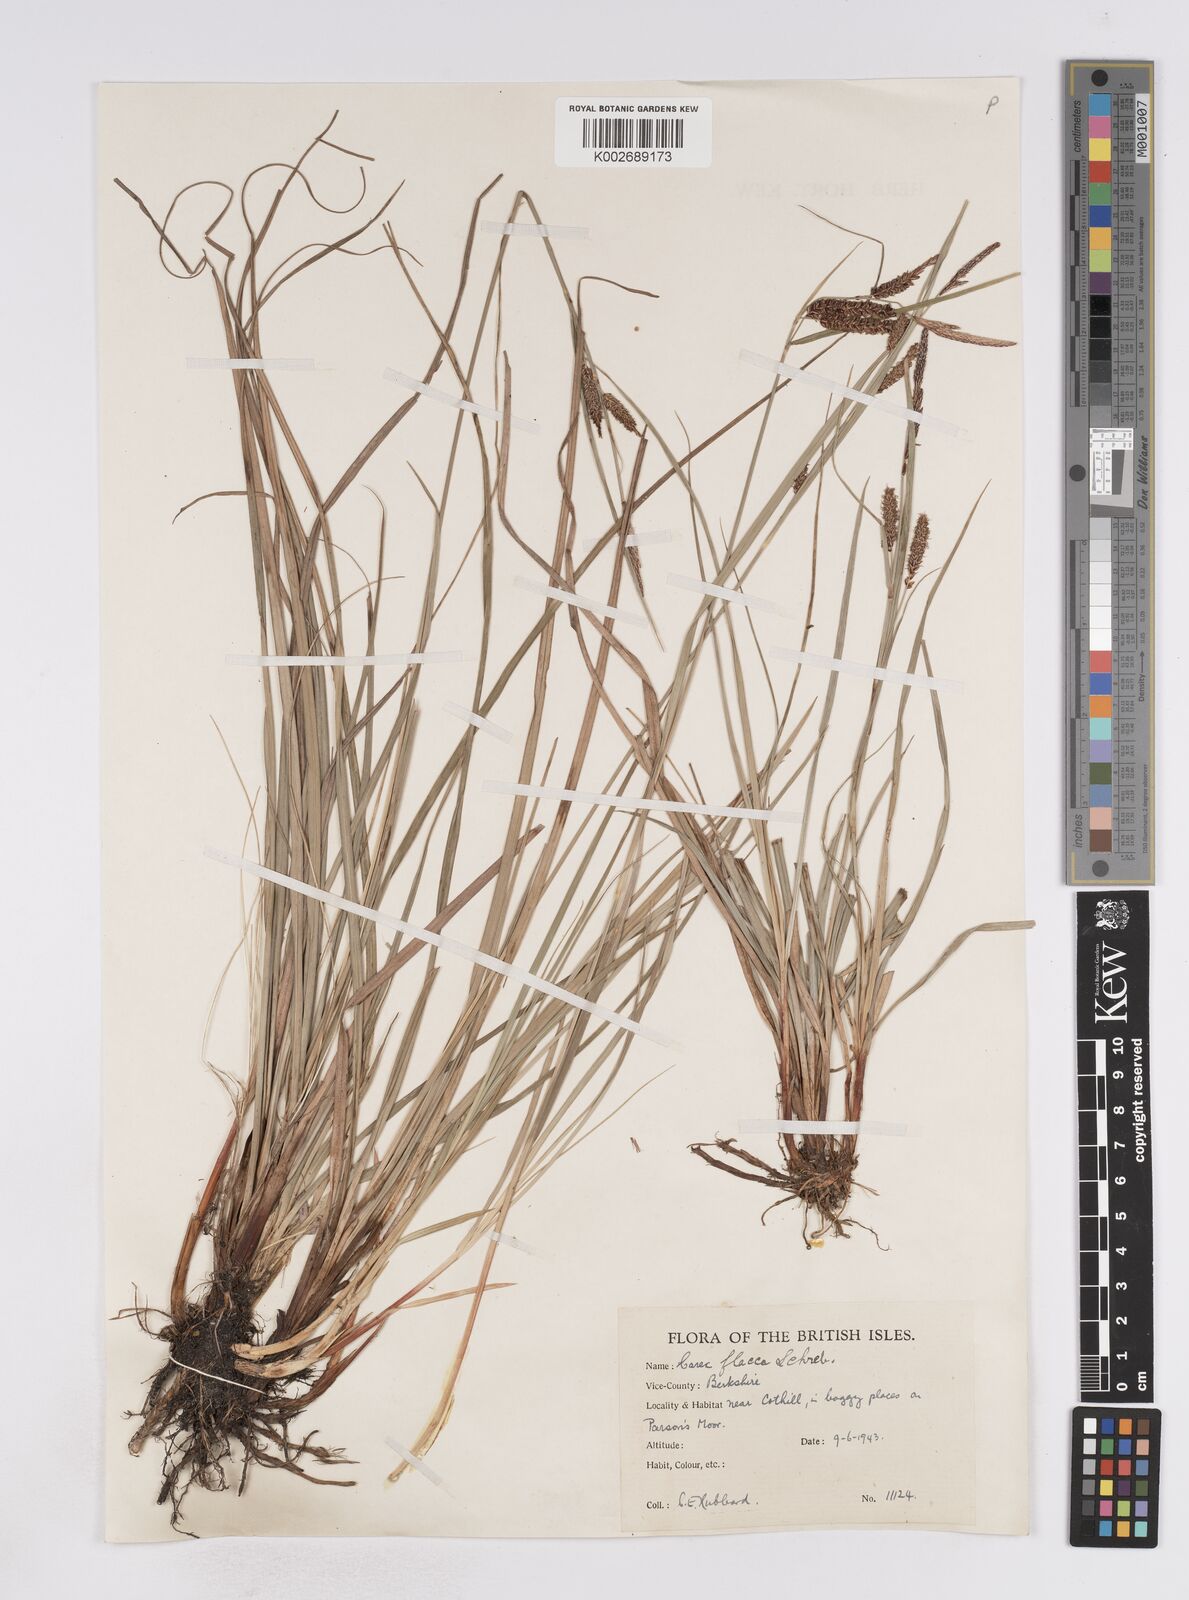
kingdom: Plantae
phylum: Tracheophyta
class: Liliopsida
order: Poales
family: Cyperaceae
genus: Carex
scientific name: Carex flacca
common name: Glaucous sedge
